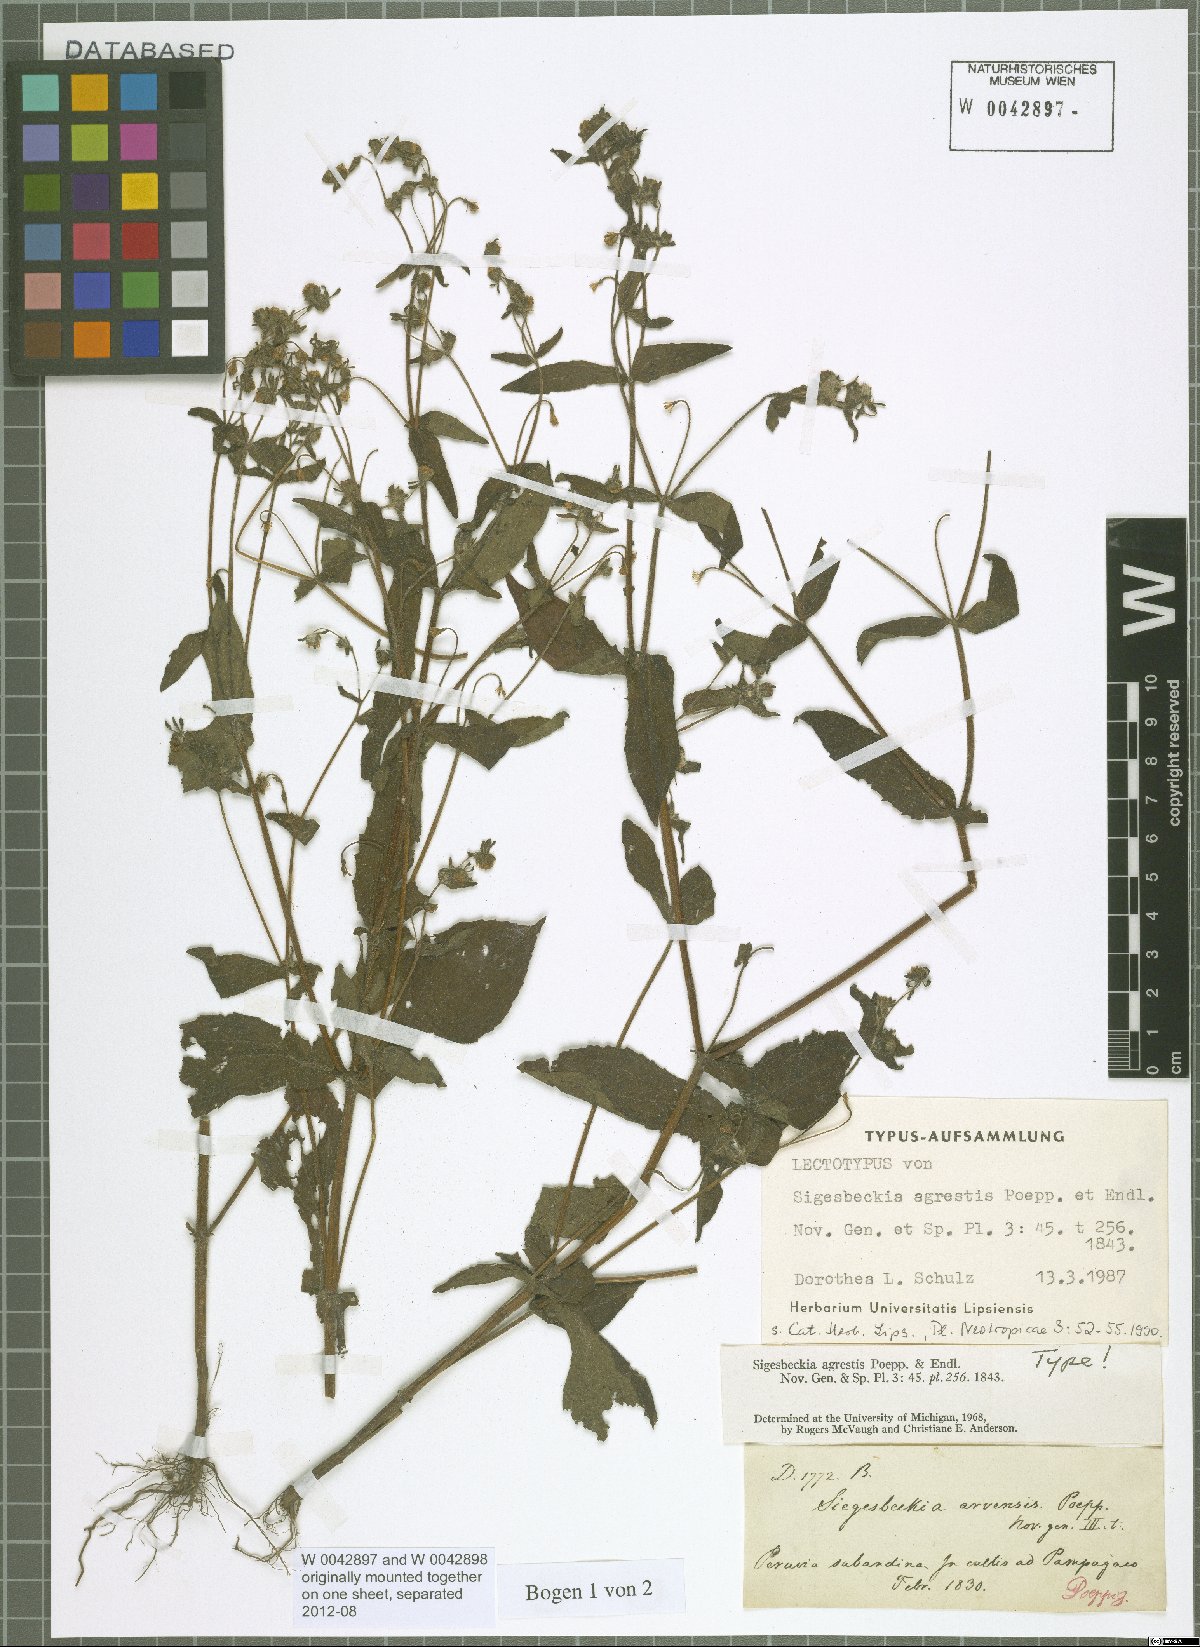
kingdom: Plantae
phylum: Tracheophyta
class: Magnoliopsida
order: Asterales
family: Asteraceae
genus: Sigesbeckia
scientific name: Sigesbeckia agrestis
